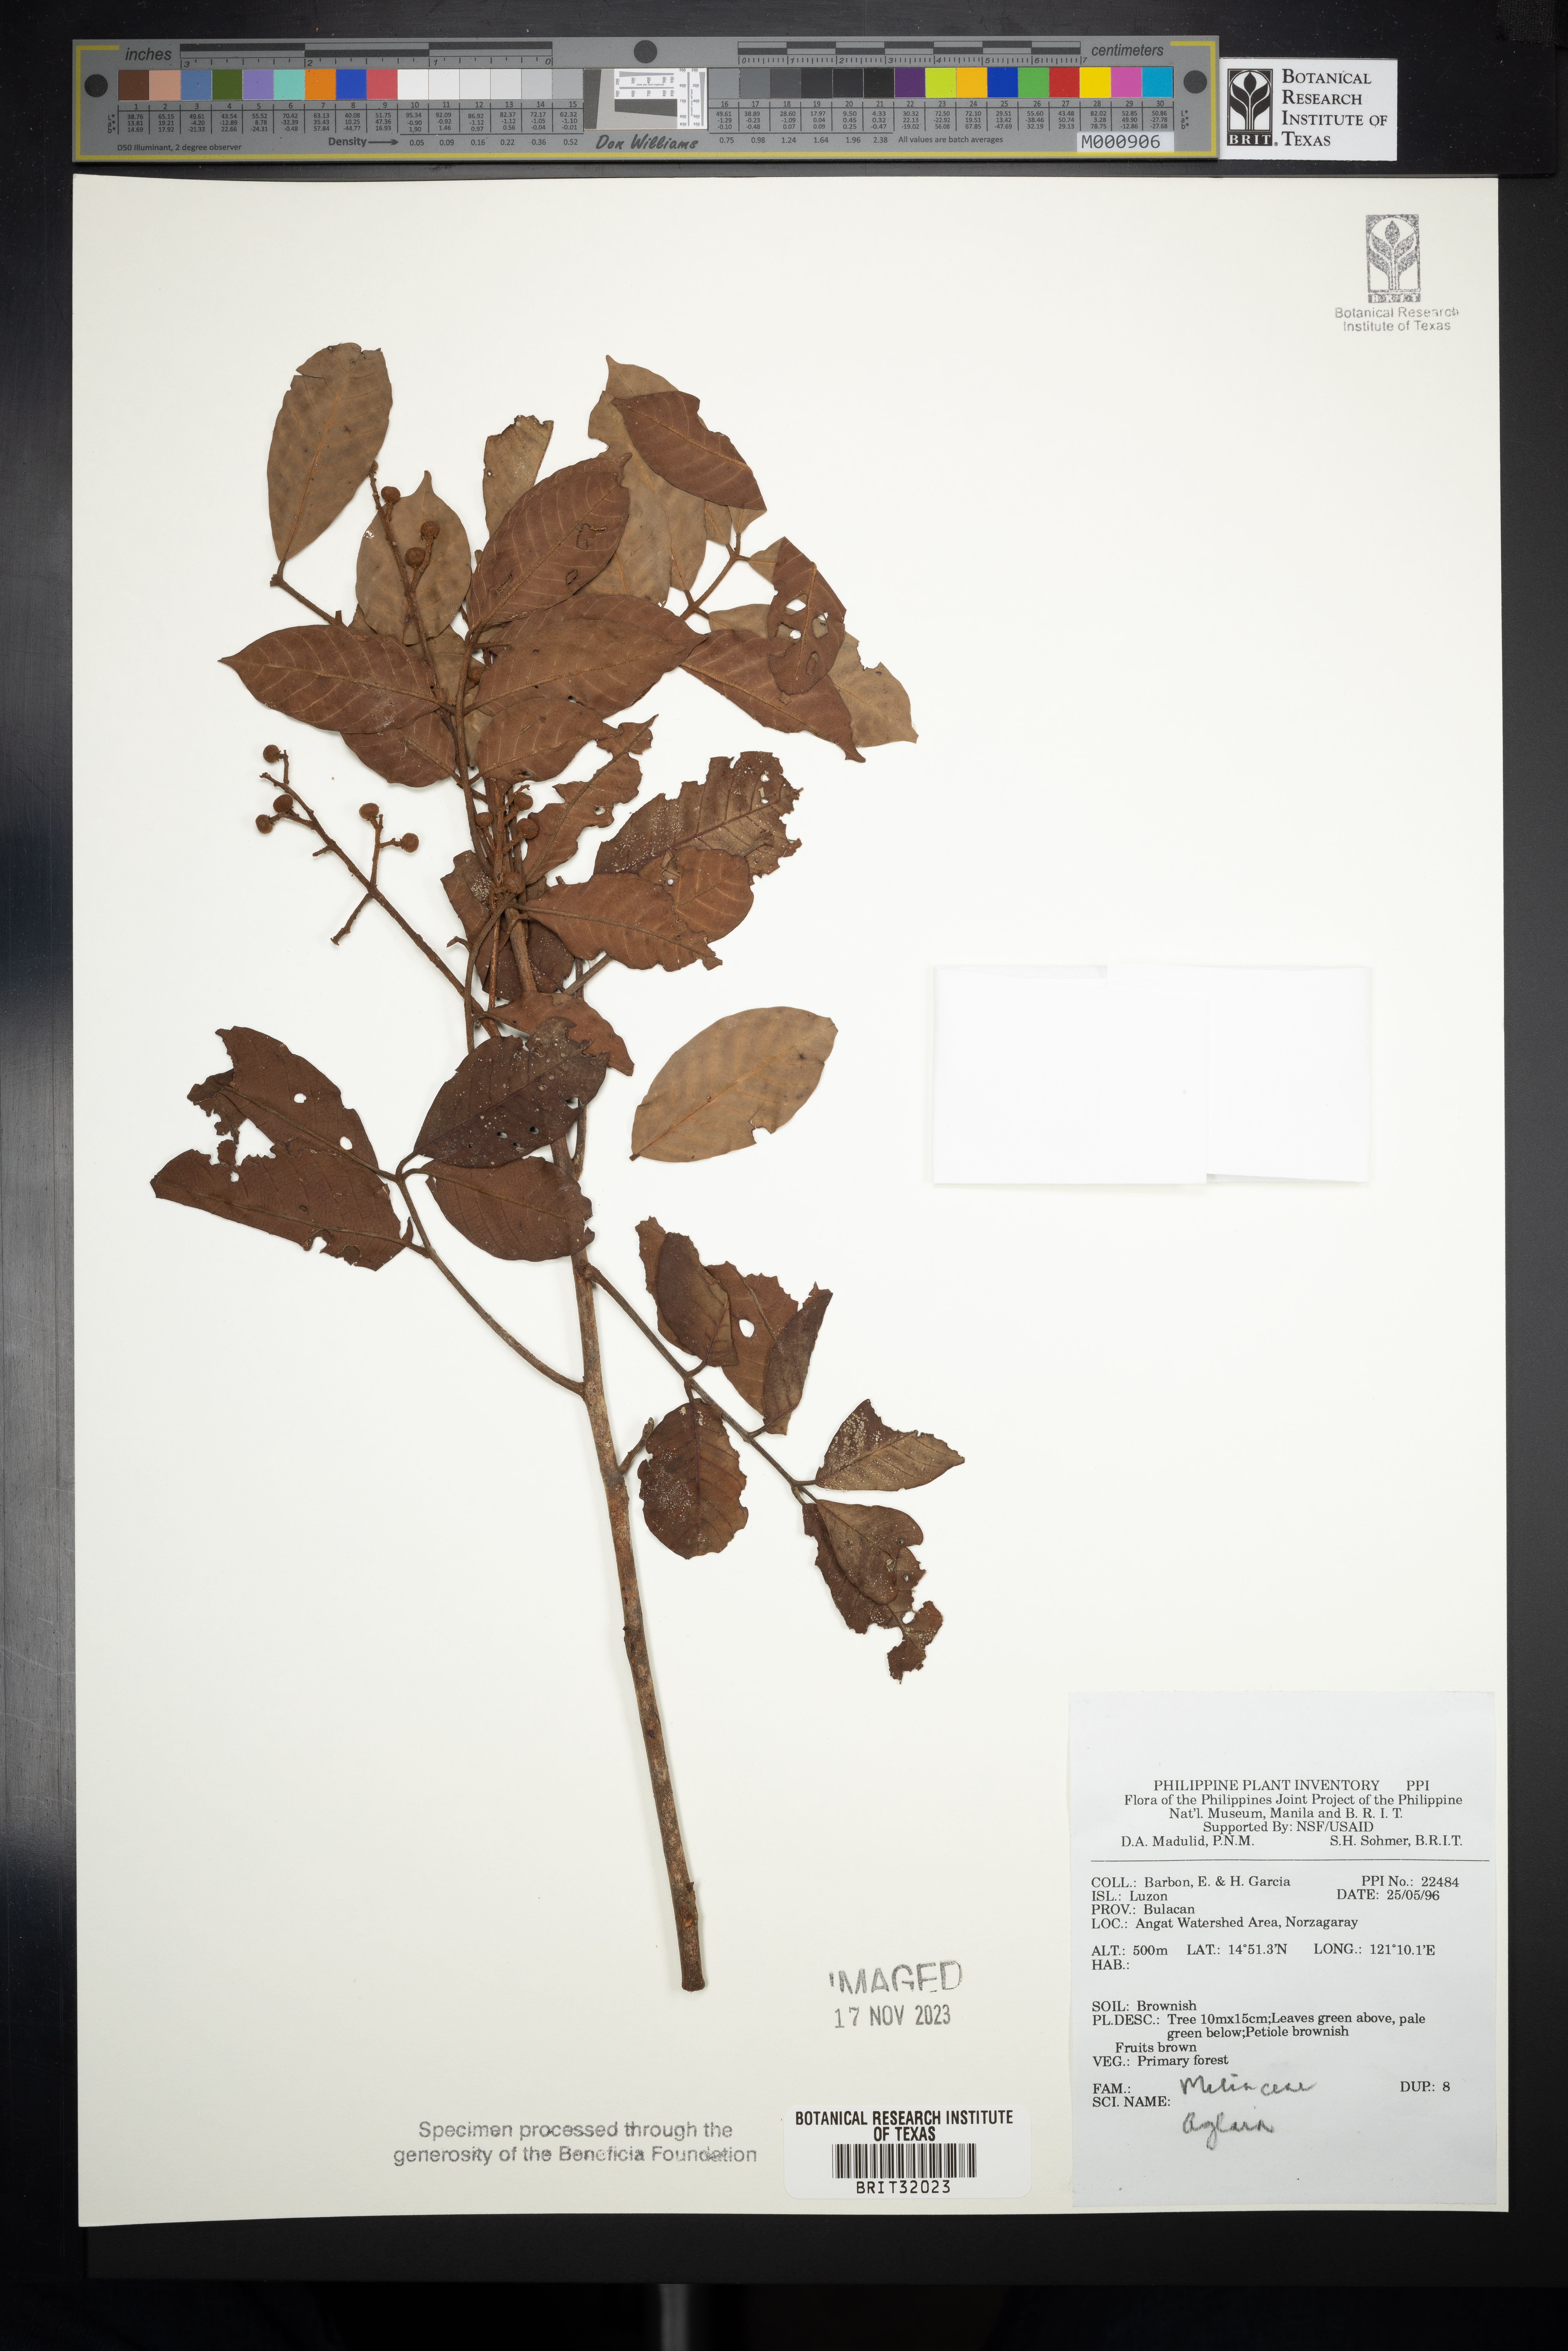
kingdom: Plantae
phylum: Tracheophyta
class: Magnoliopsida
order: Sapindales
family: Meliaceae
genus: Aglaia
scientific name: Aglaia
